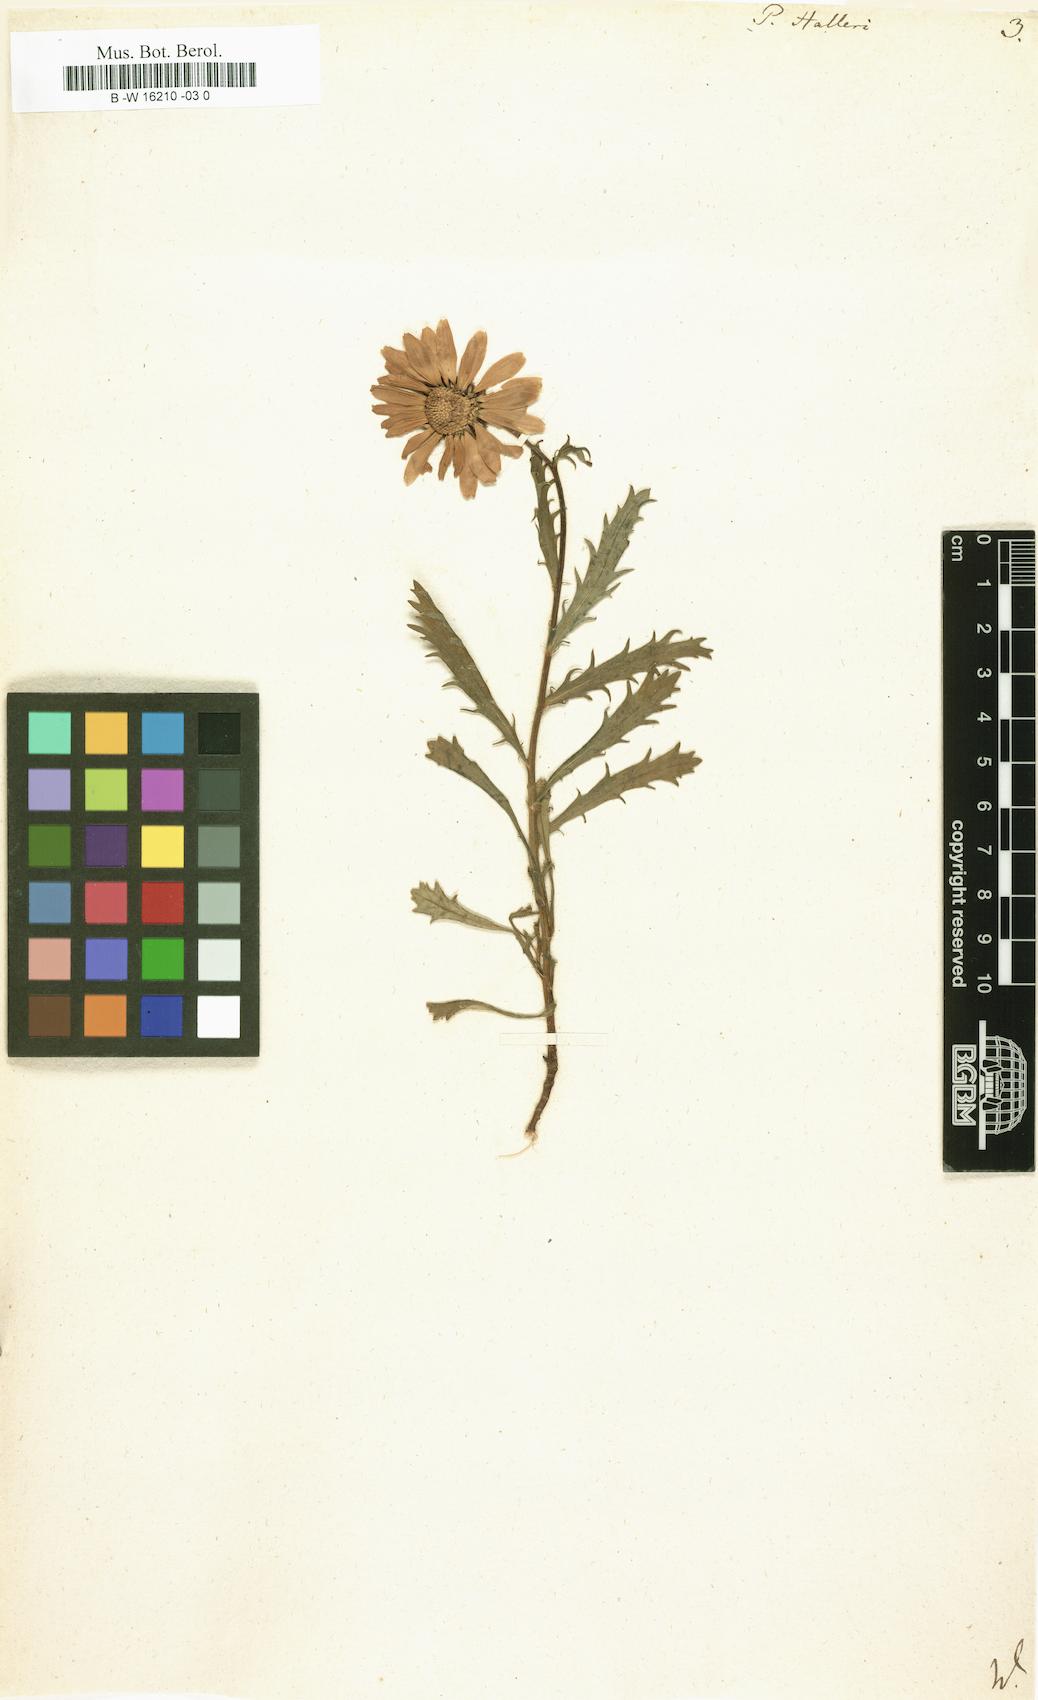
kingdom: Plantae
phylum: Tracheophyta
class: Magnoliopsida
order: Asterales
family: Asteraceae
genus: Leucanthemum
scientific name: Leucanthemum halleri
